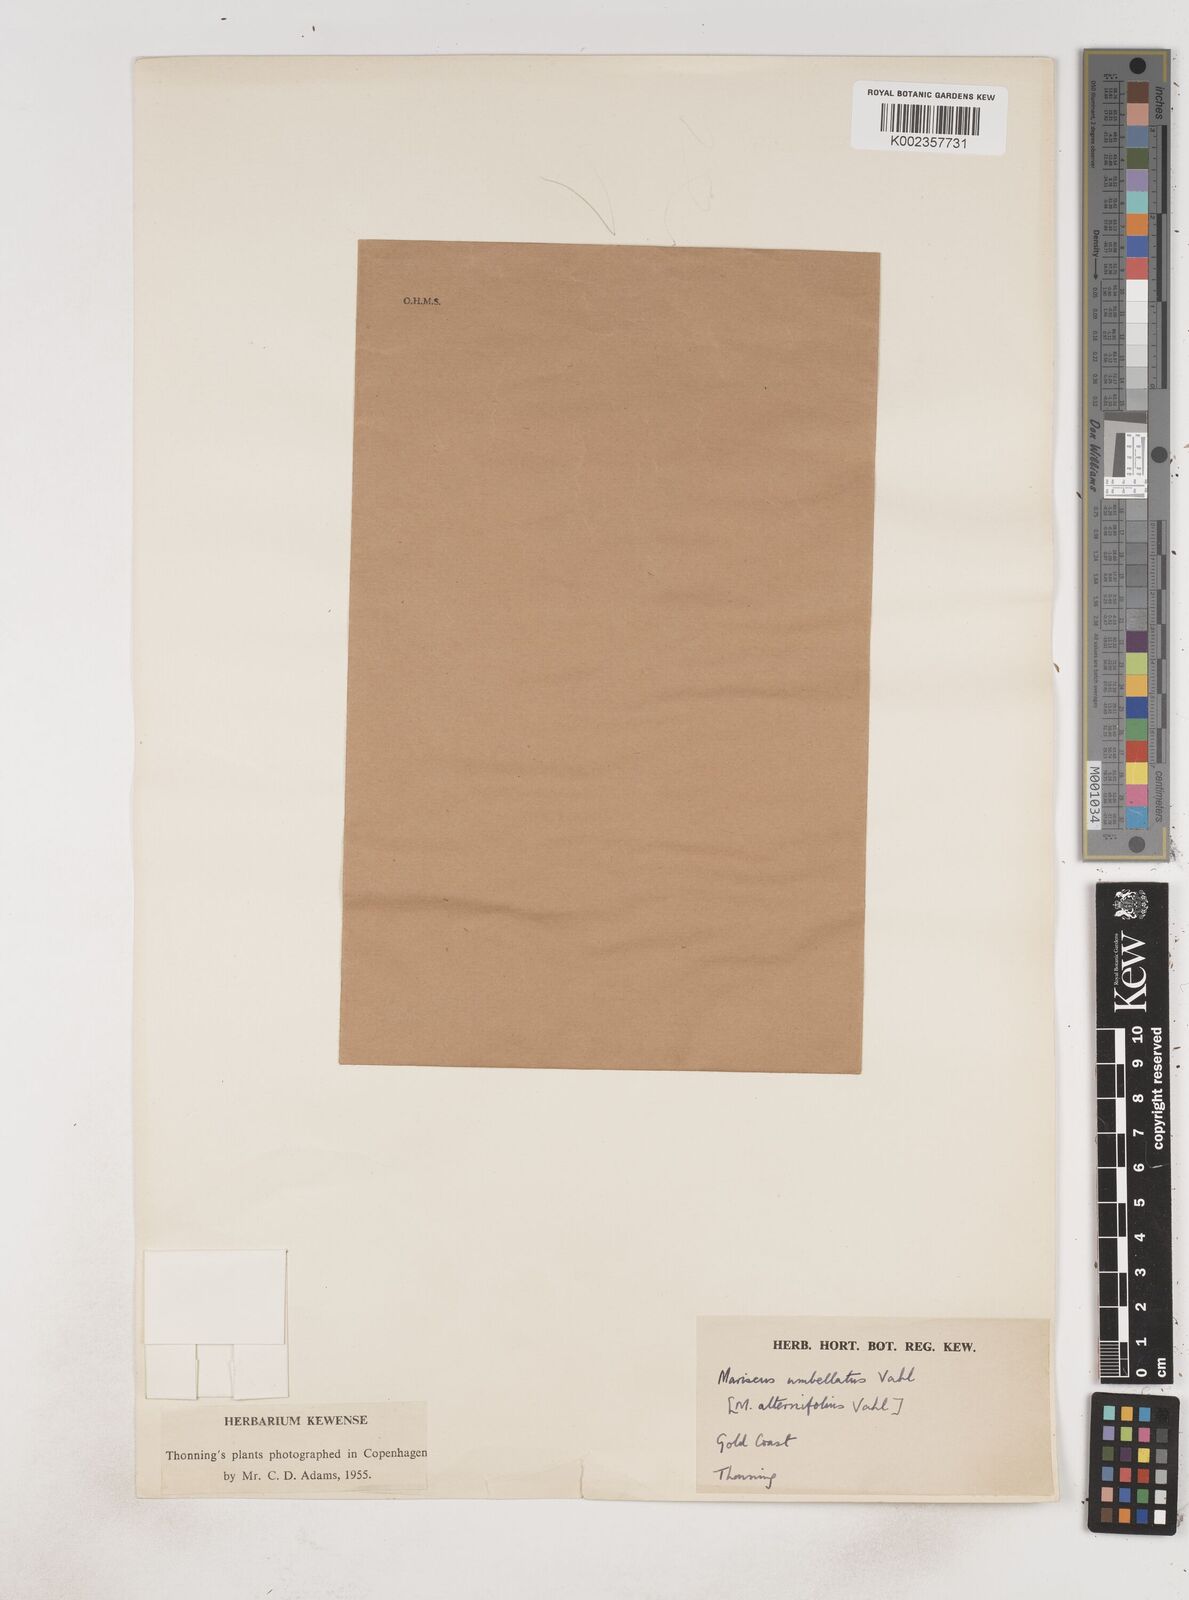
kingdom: Plantae
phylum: Tracheophyta
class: Liliopsida
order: Poales
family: Cyperaceae
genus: Cyperus
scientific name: Cyperus cyperoides
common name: Pacific island flat sedge
